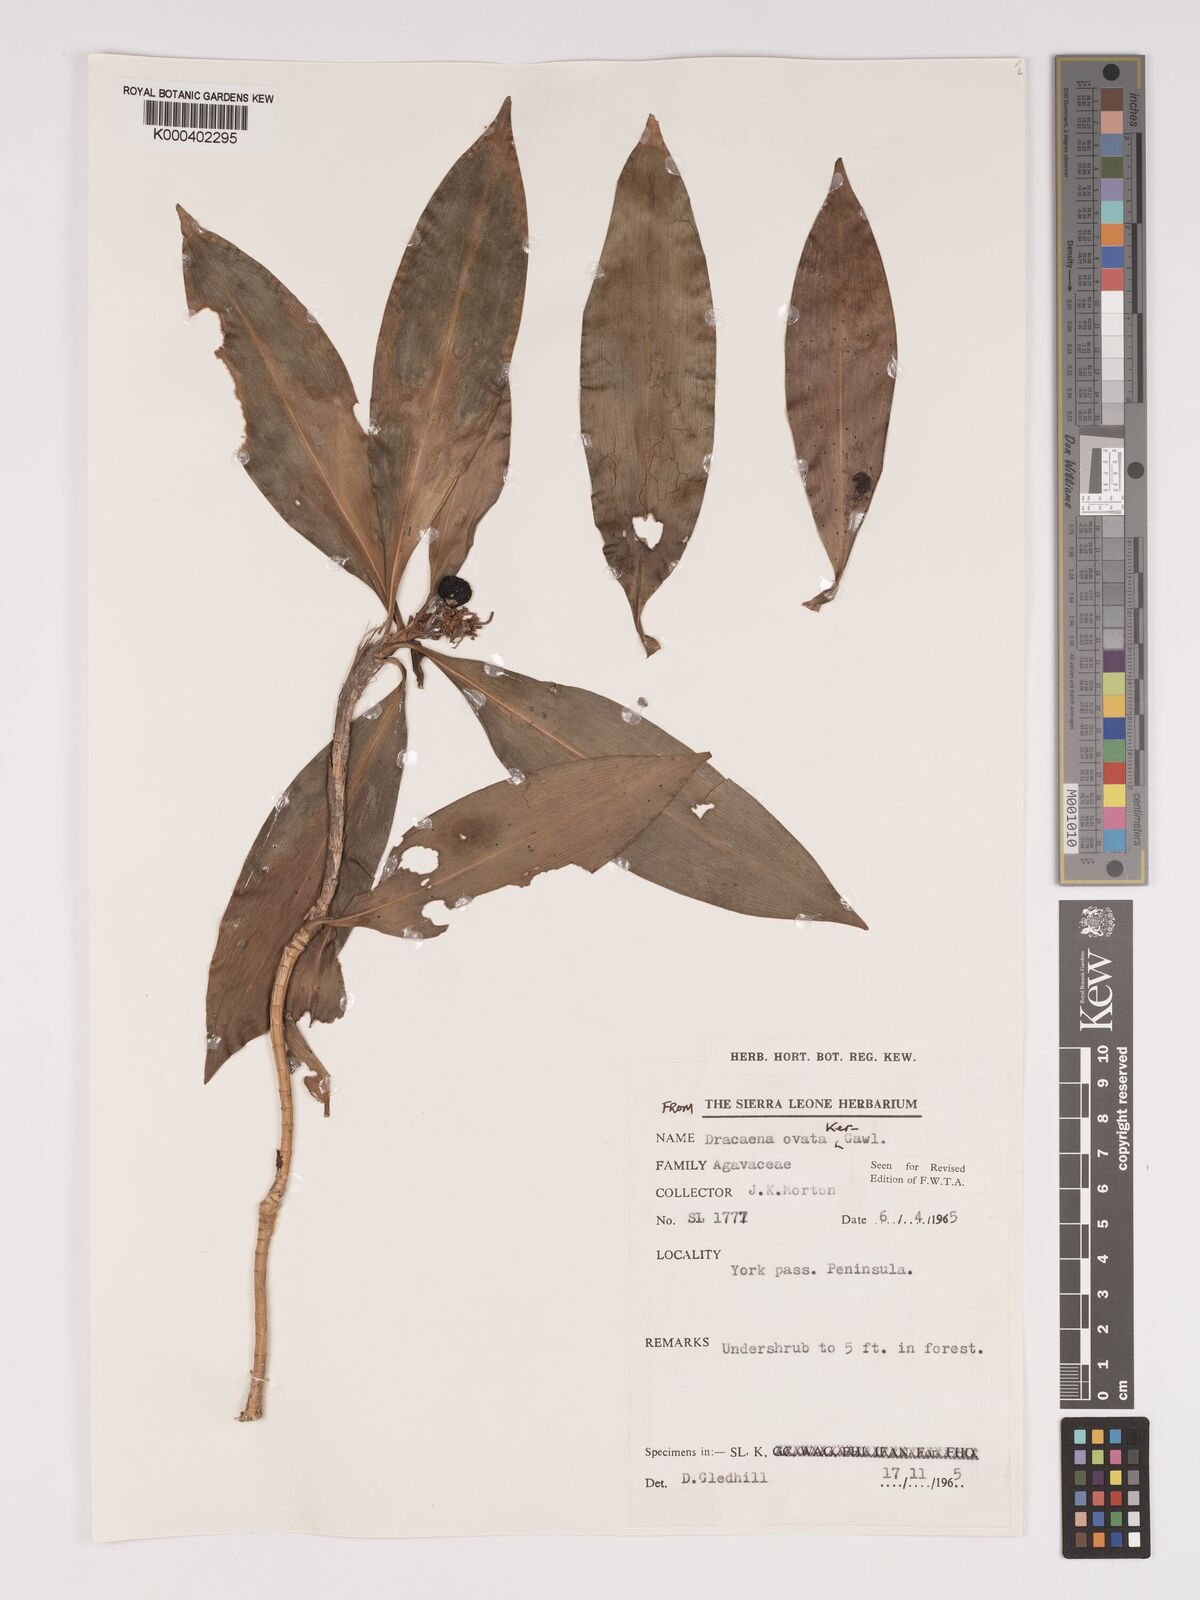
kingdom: Plantae
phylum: Tracheophyta
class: Liliopsida
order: Asparagales
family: Asparagaceae
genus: Dracaena
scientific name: Dracaena ovata
